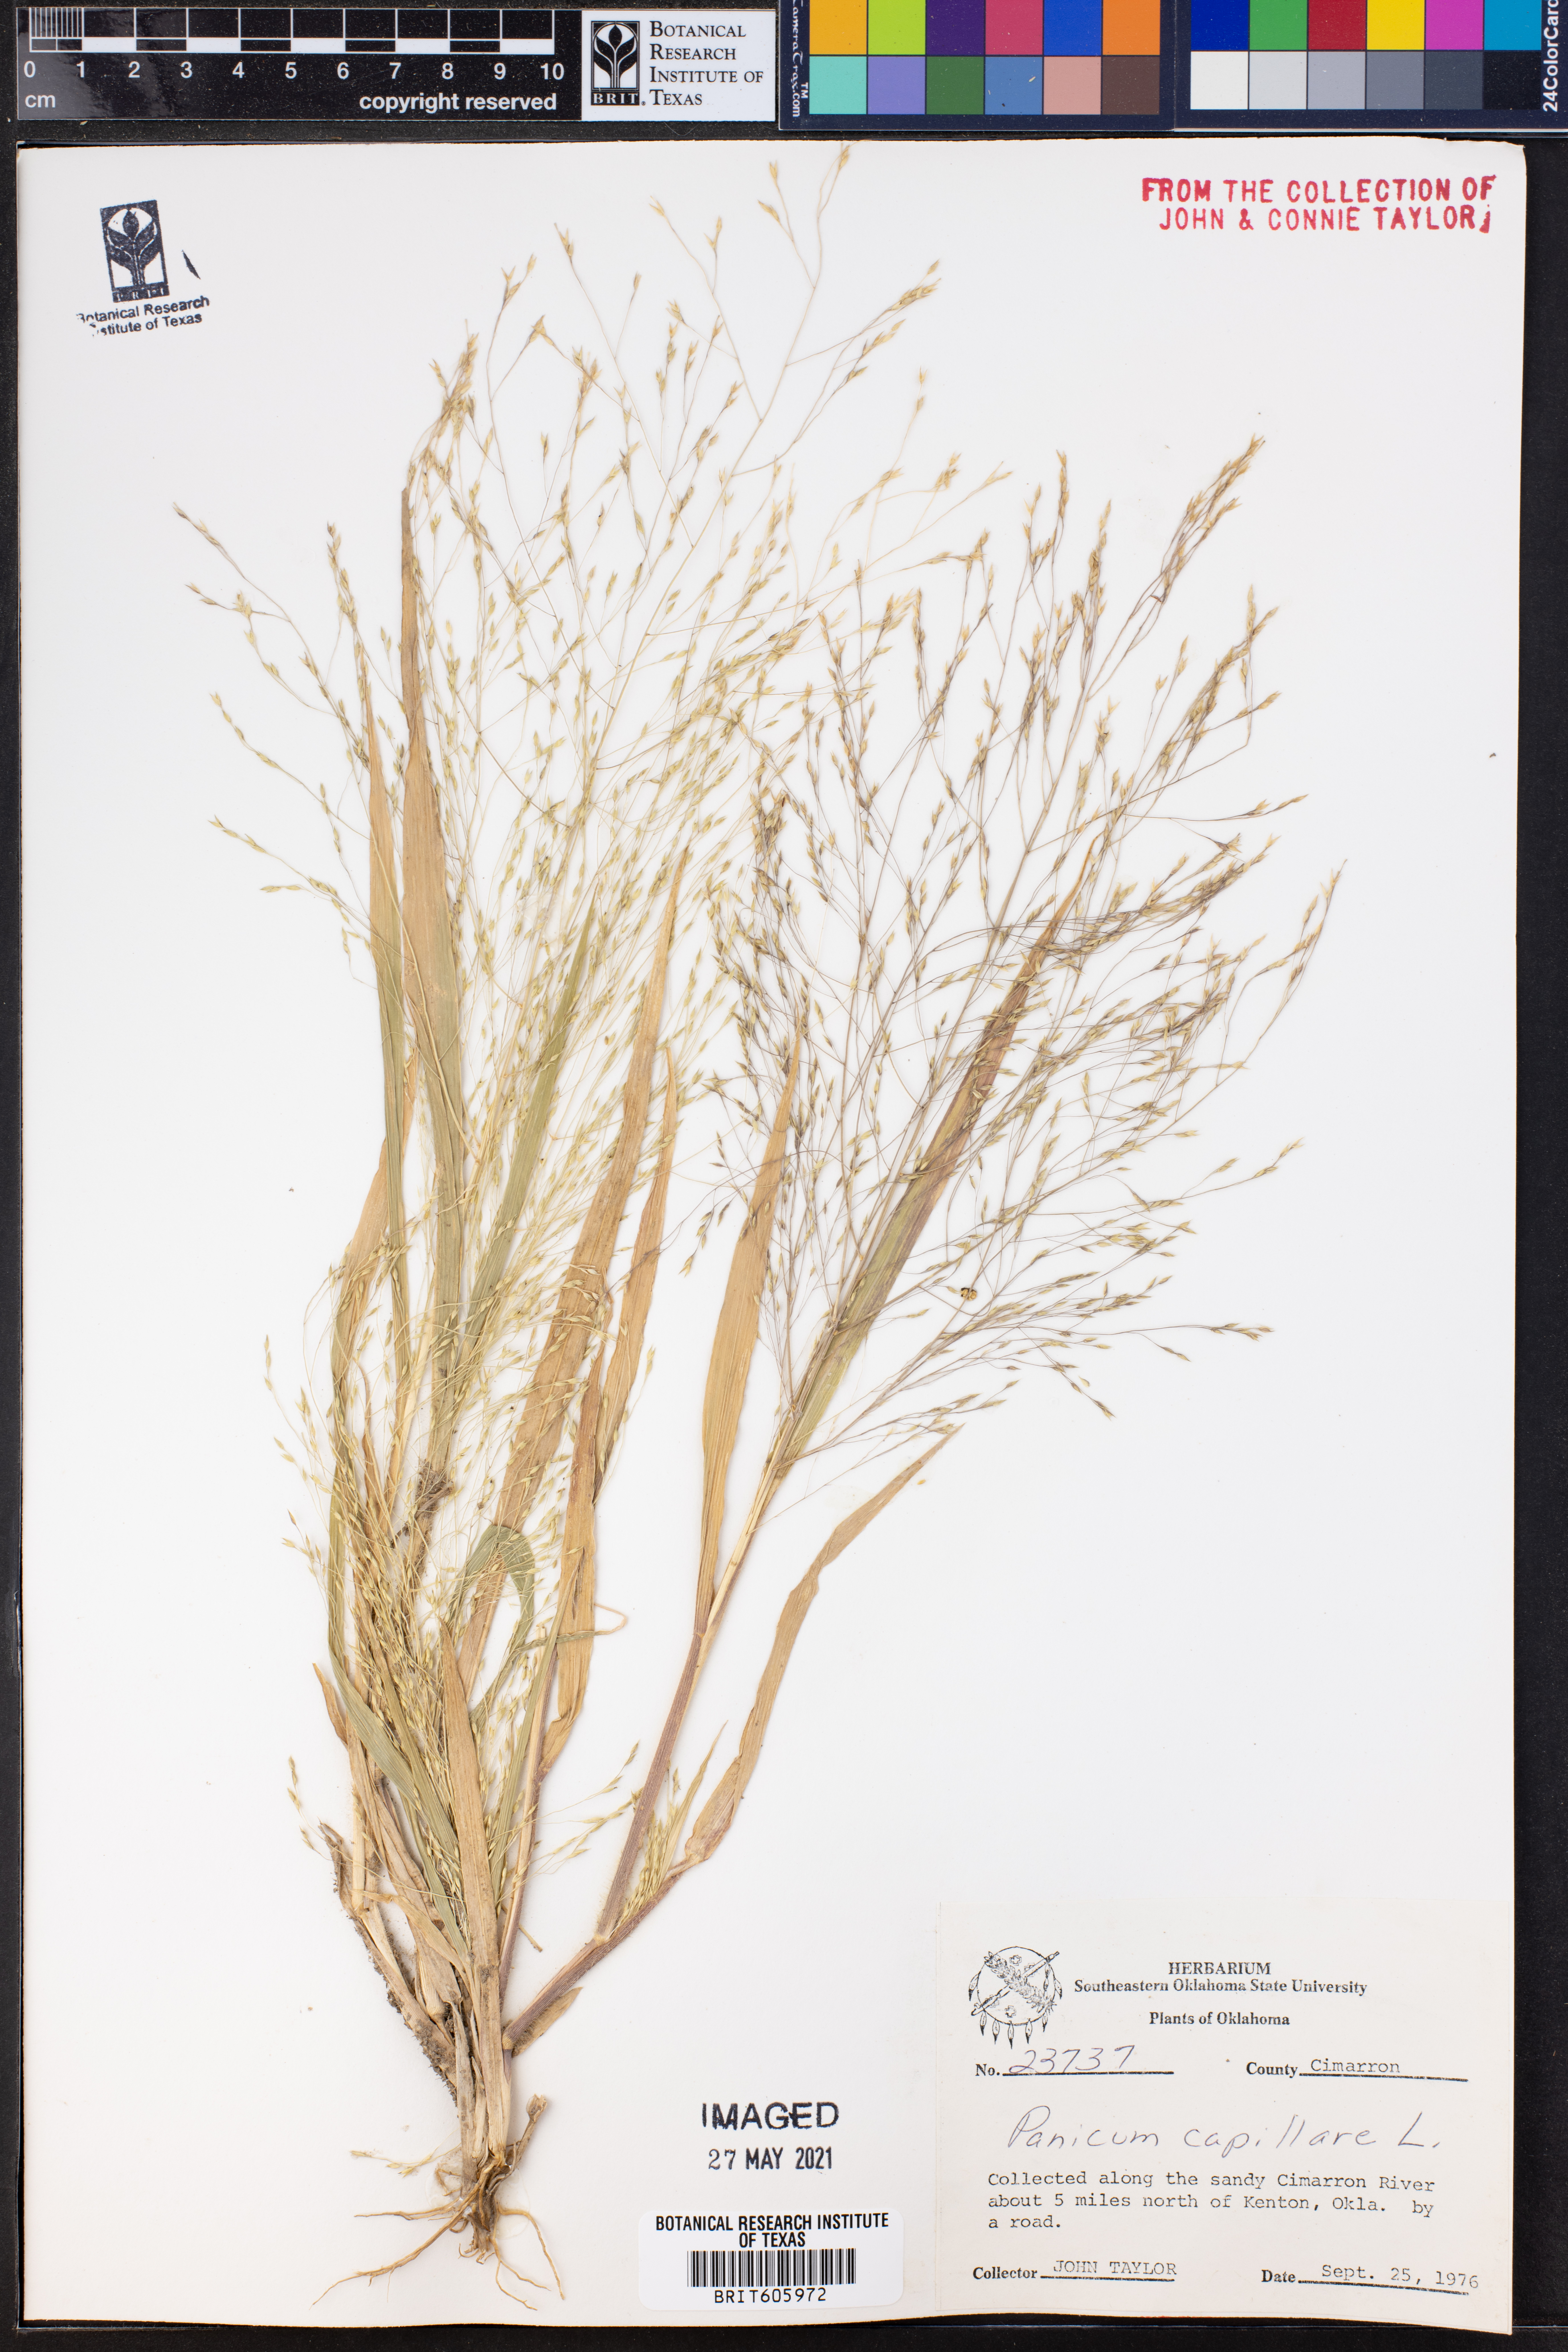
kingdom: Plantae
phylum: Tracheophyta
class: Liliopsida
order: Poales
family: Poaceae
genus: Panicum
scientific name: Panicum capillare
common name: Witch-grass
